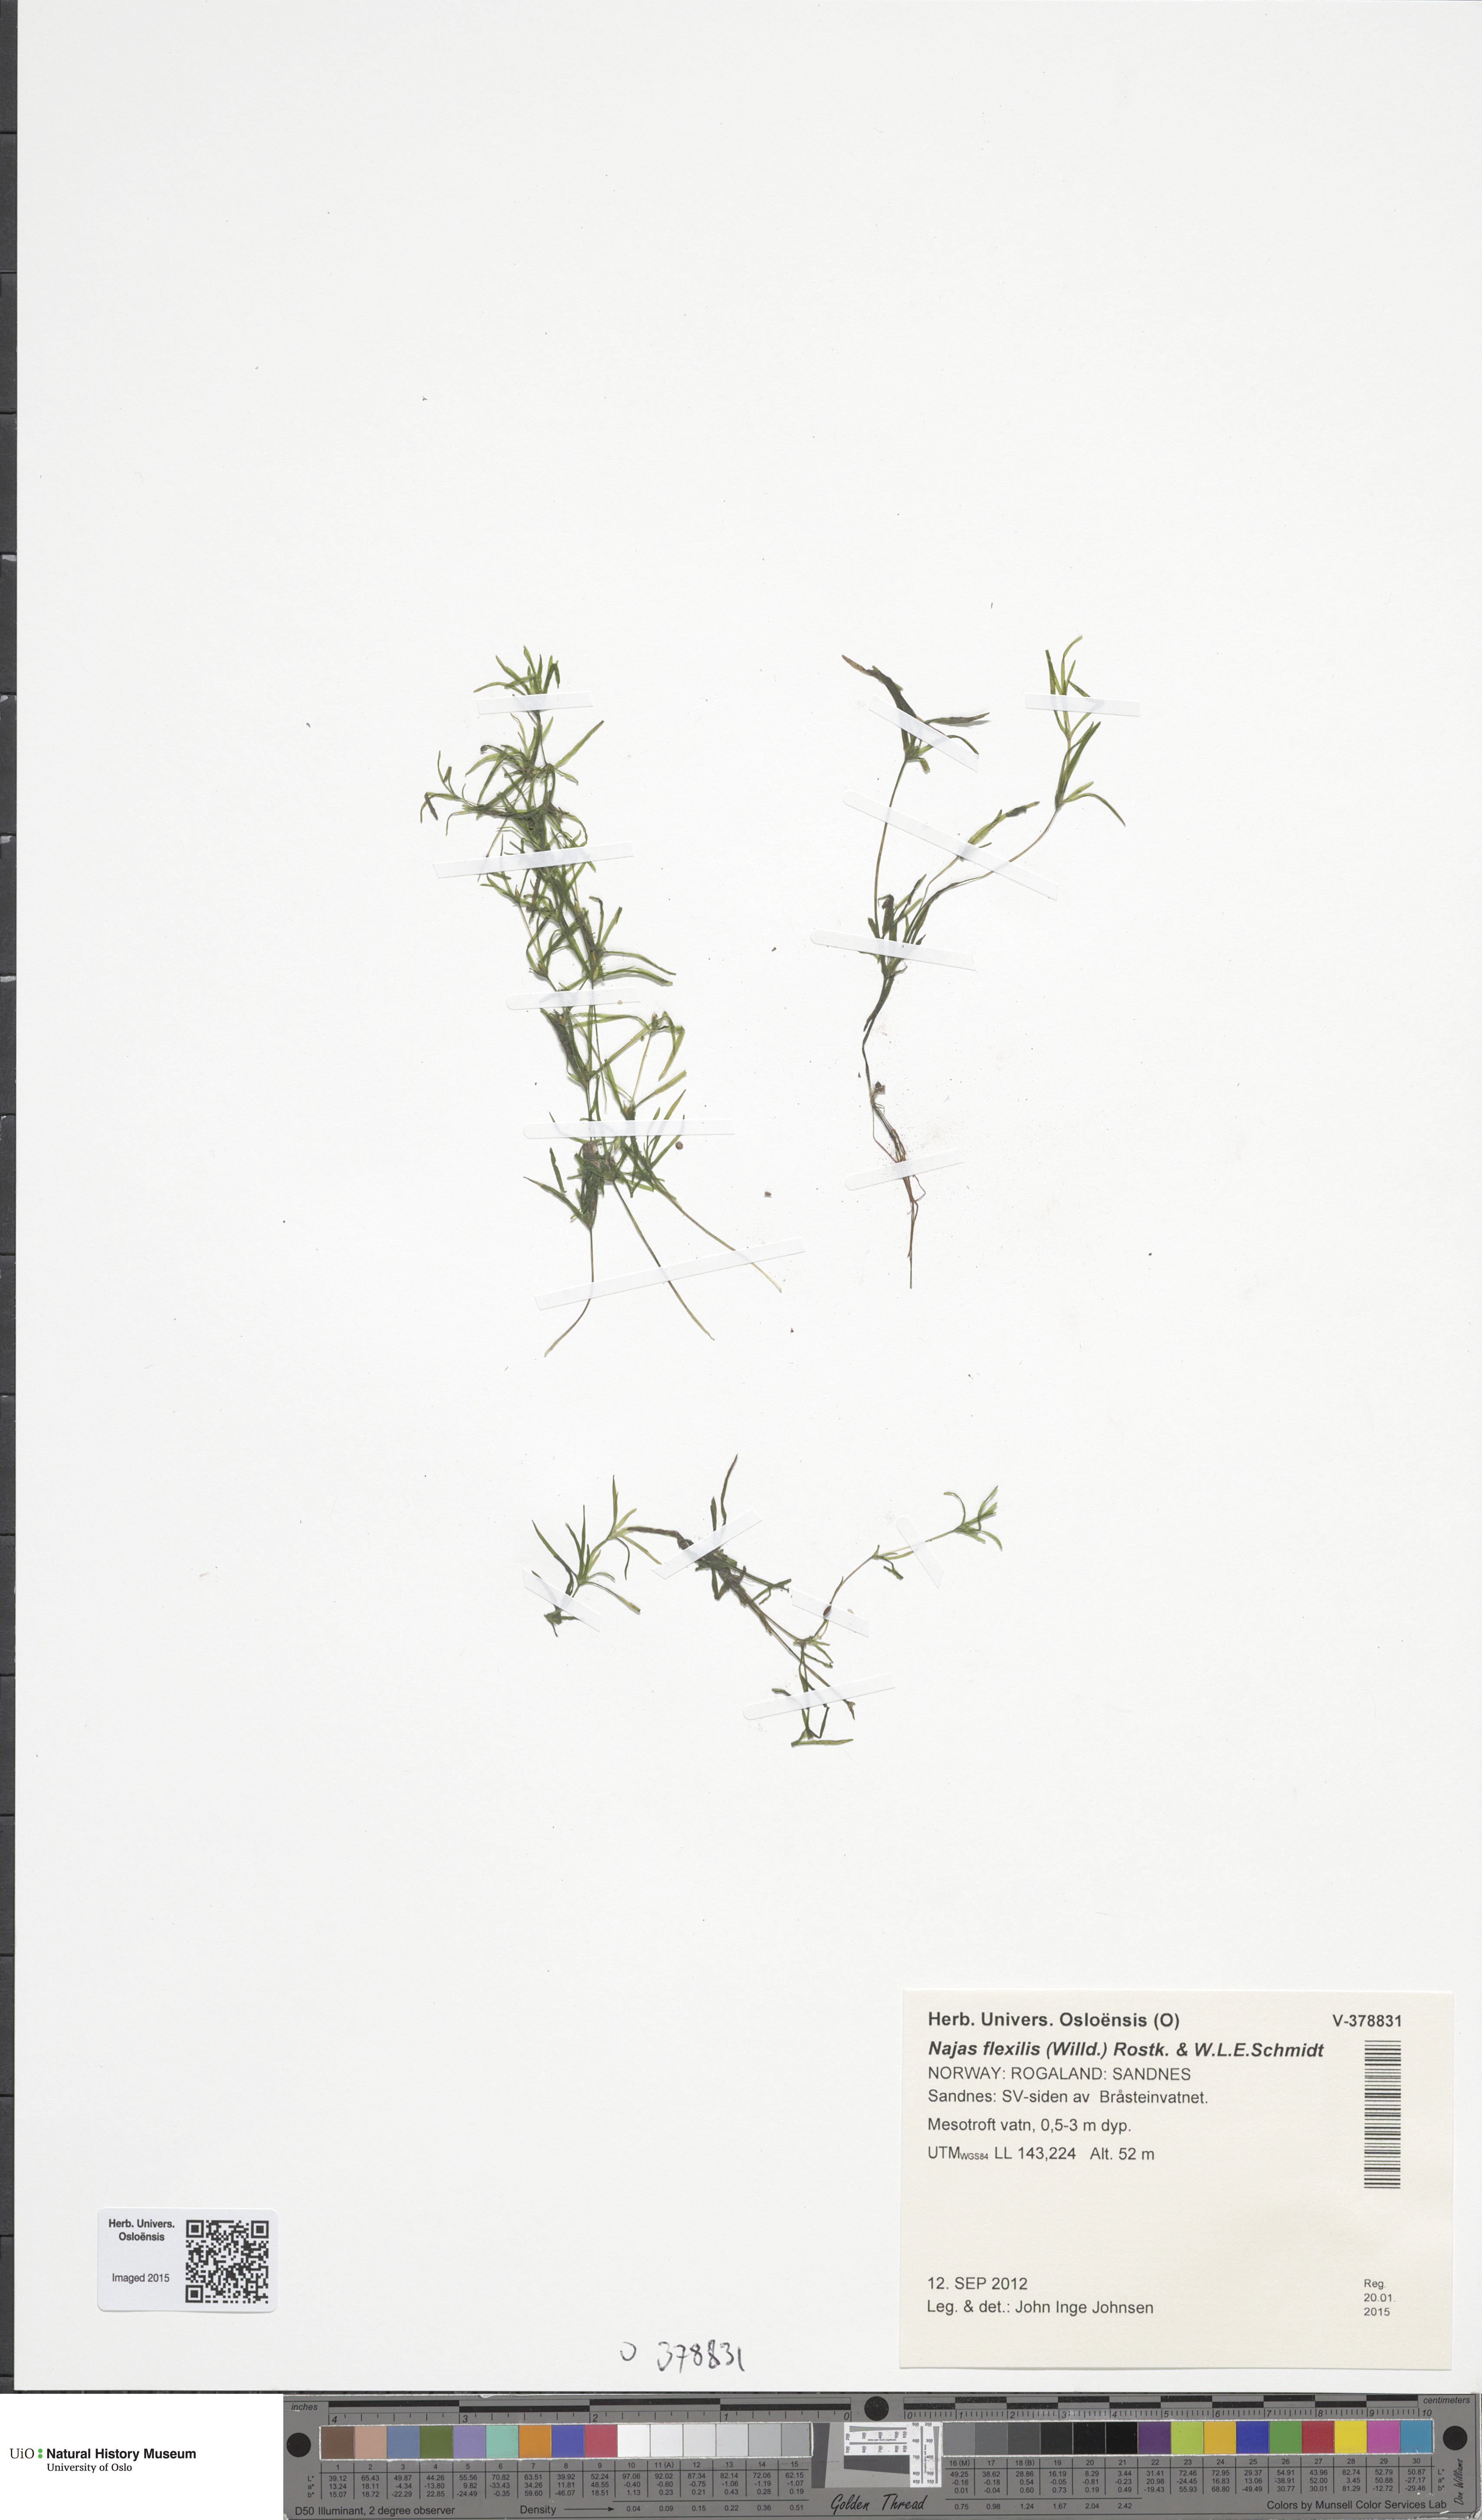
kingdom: Plantae
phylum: Tracheophyta
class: Liliopsida
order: Alismatales
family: Hydrocharitaceae
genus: Najas
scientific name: Najas flexilis
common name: Slender naiad
